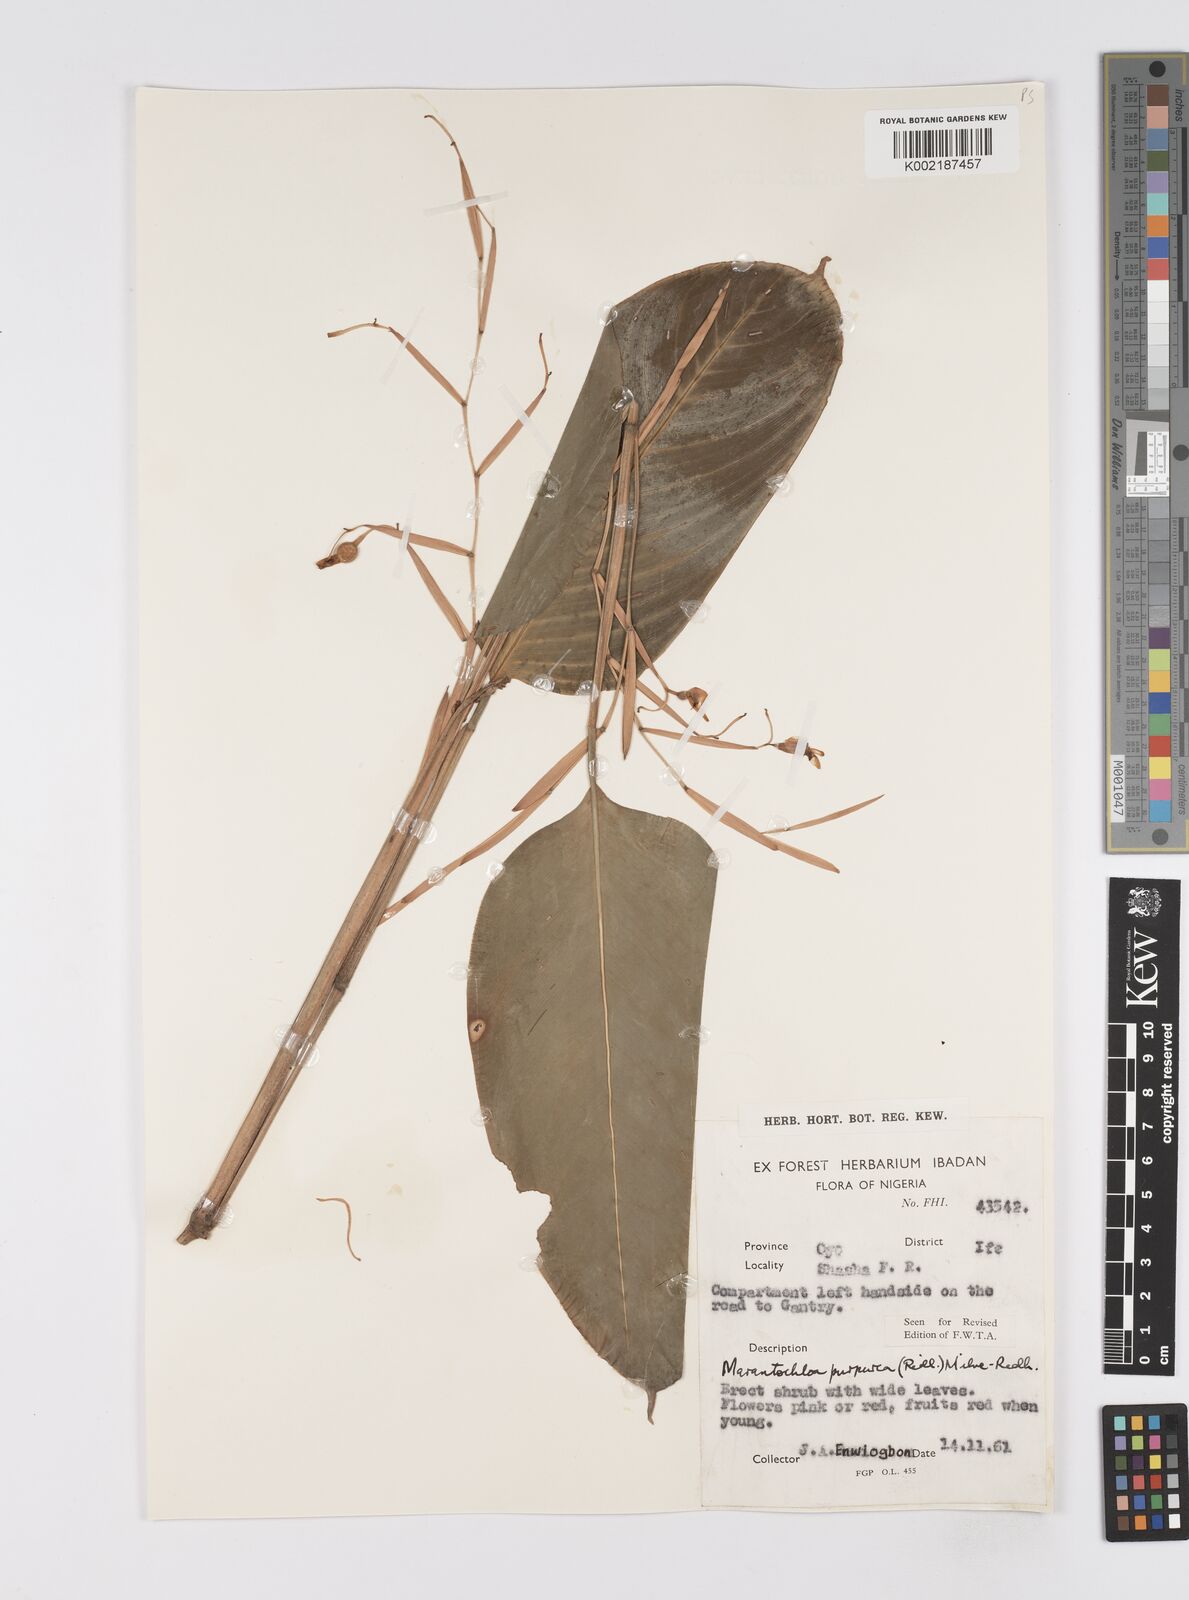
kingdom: Plantae
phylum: Tracheophyta
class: Liliopsida
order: Zingiberales
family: Marantaceae
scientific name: Marantaceae
